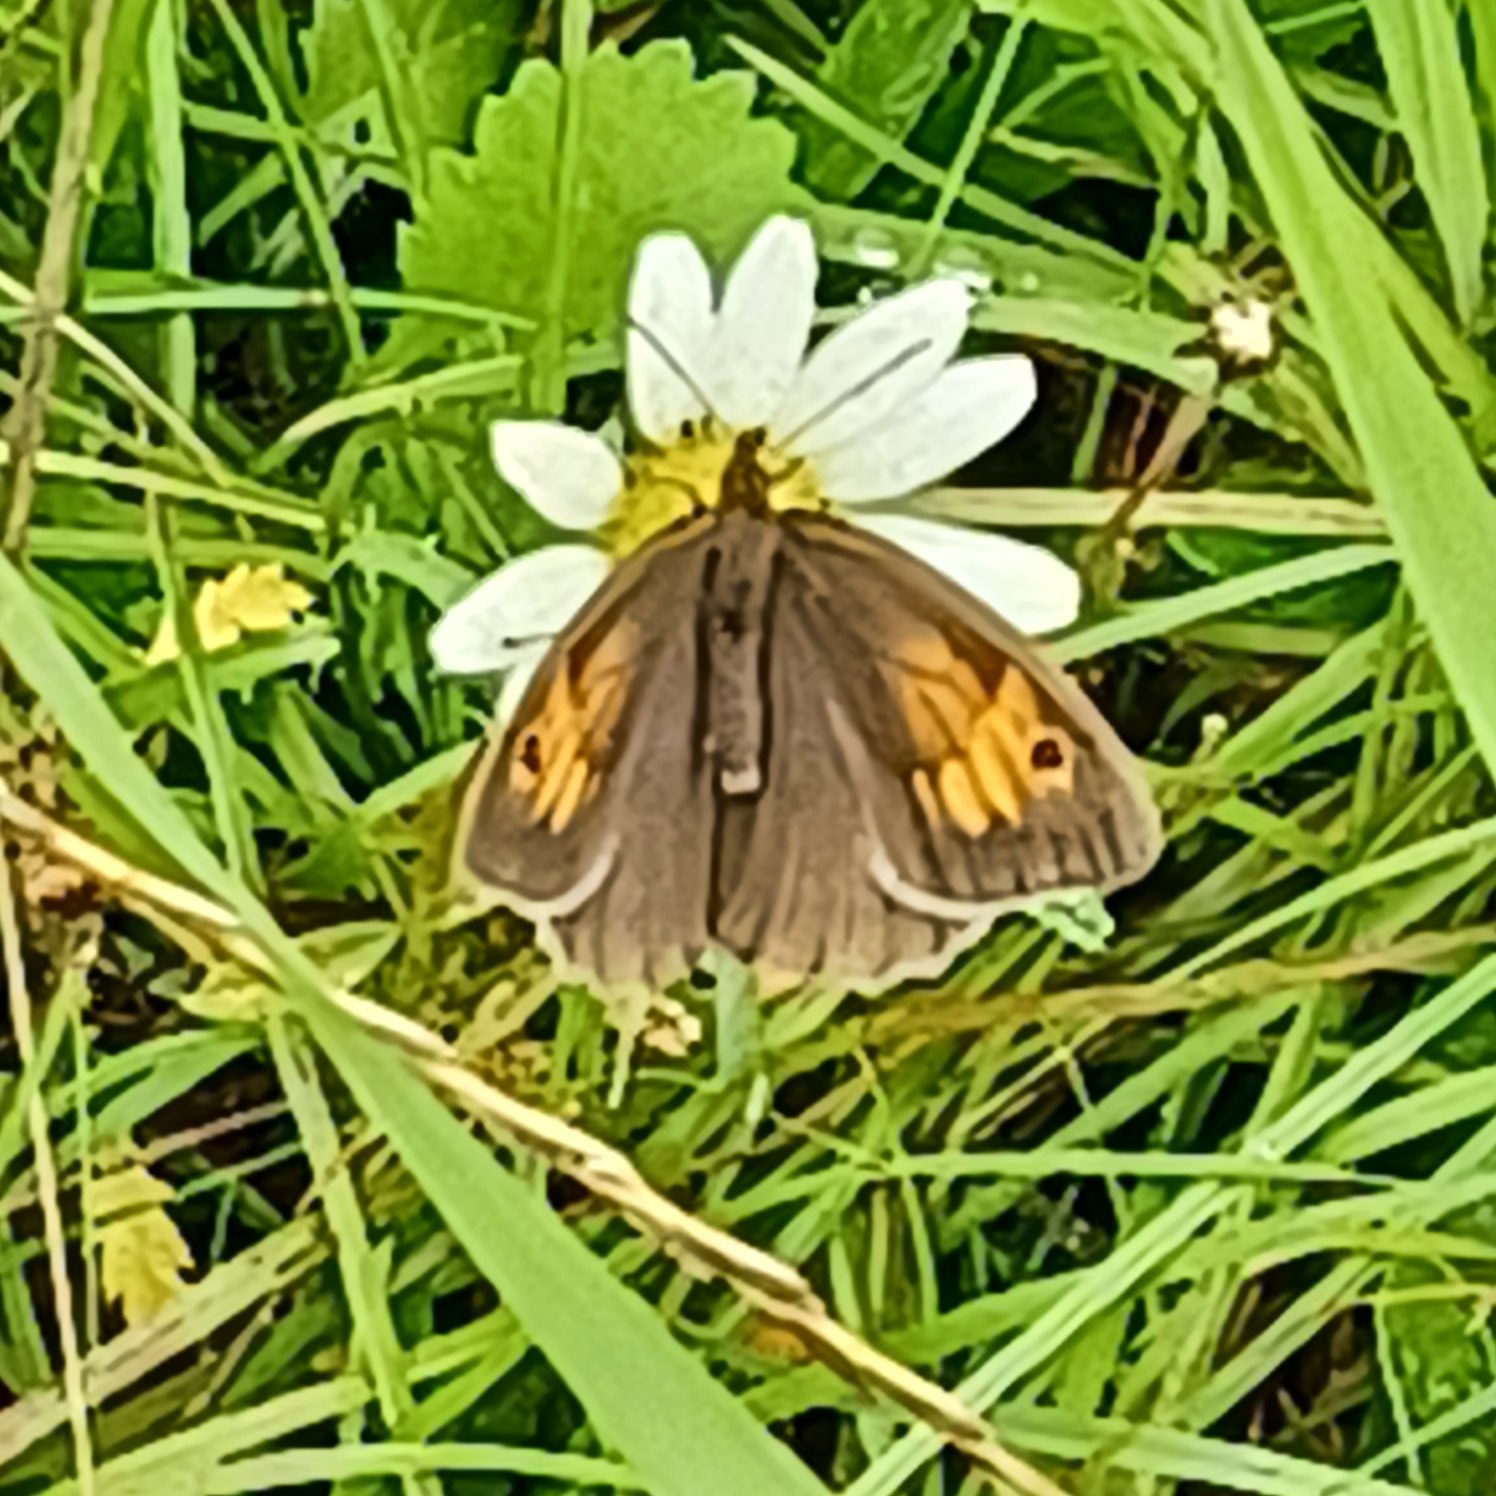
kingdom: Animalia
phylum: Arthropoda
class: Insecta
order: Lepidoptera
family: Nymphalidae
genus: Maniola
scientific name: Maniola jurtina
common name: Græsrandøje
